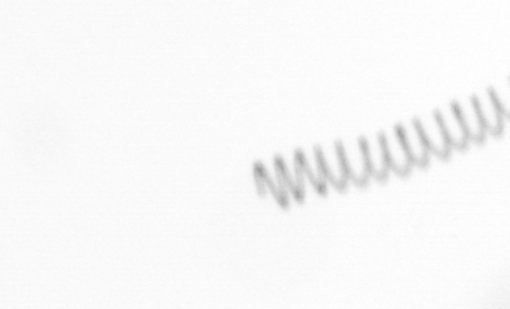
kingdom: Chromista
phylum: Ochrophyta
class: Bacillariophyceae
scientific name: Bacillariophyceae
